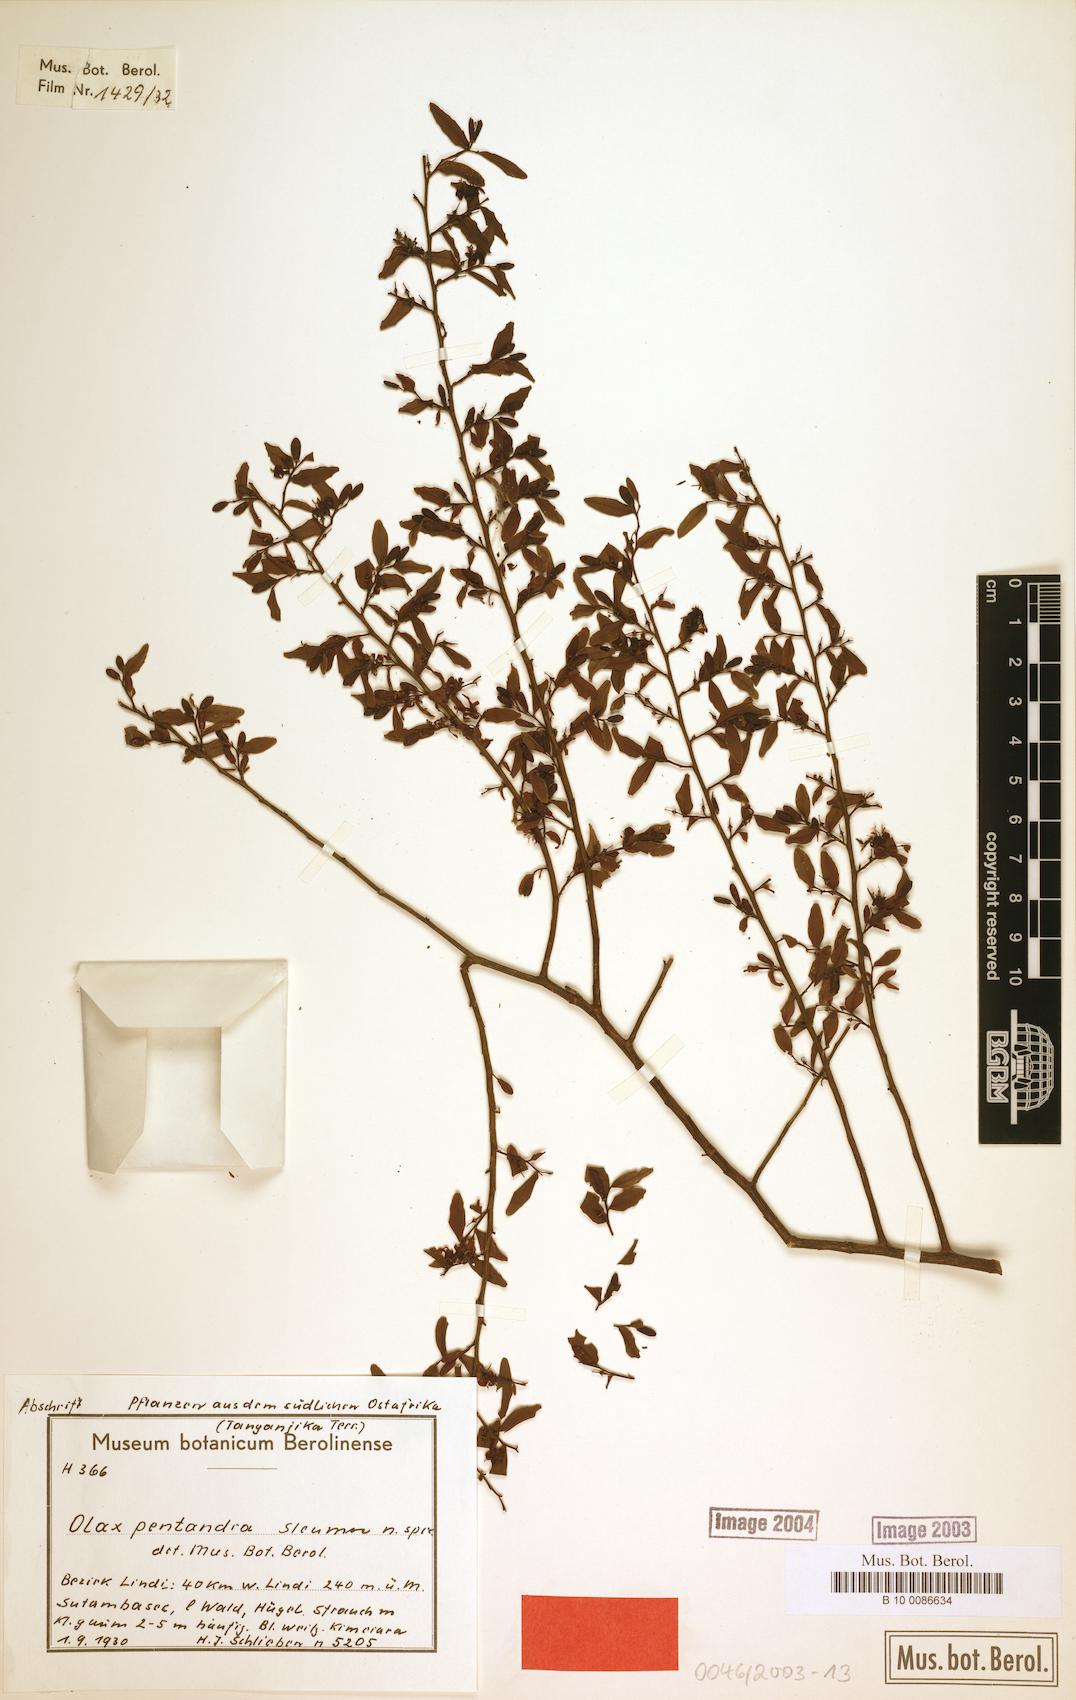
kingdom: Plantae
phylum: Tracheophyta
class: Magnoliopsida
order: Santalales
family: Olacaceae
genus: Olax
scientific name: Olax pentandra
